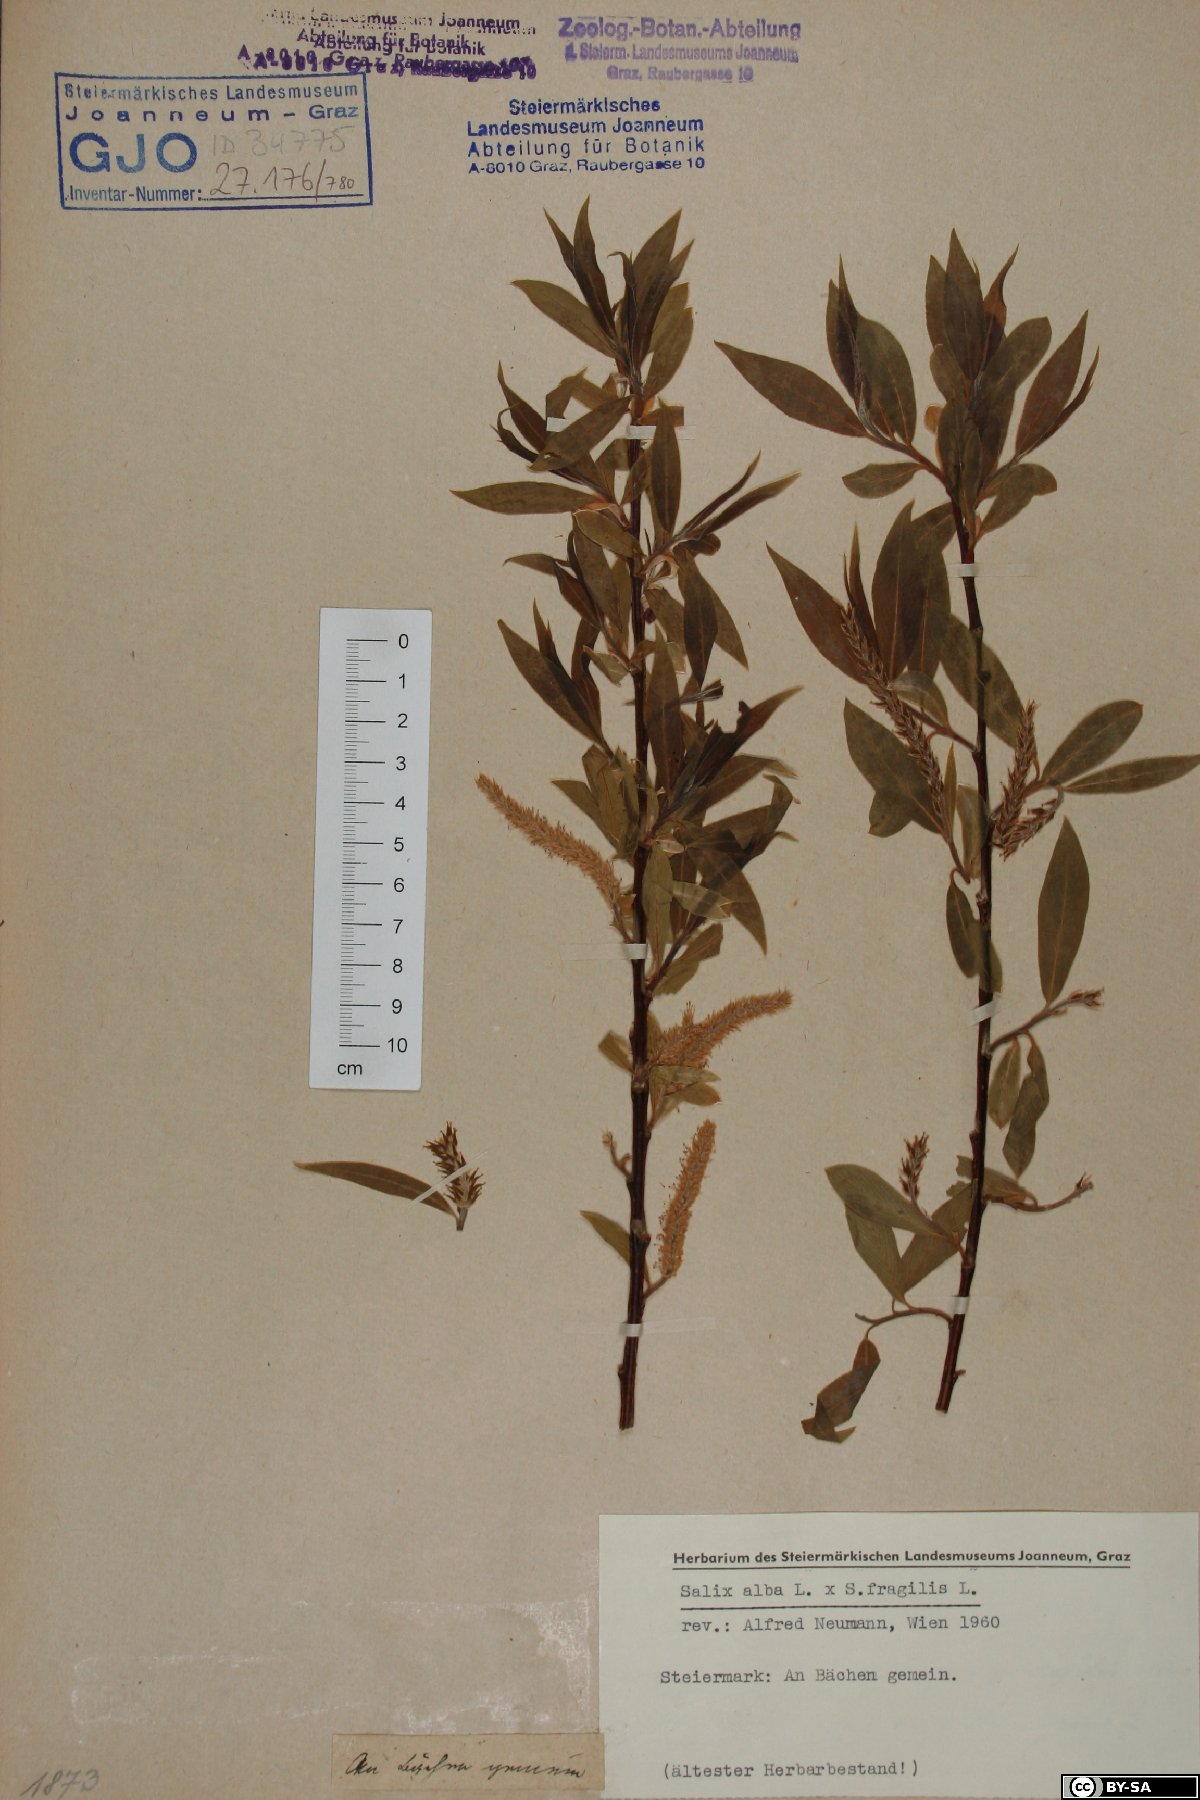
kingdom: Plantae
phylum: Tracheophyta
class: Magnoliopsida
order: Malpighiales
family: Salicaceae
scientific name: Salicaceae
